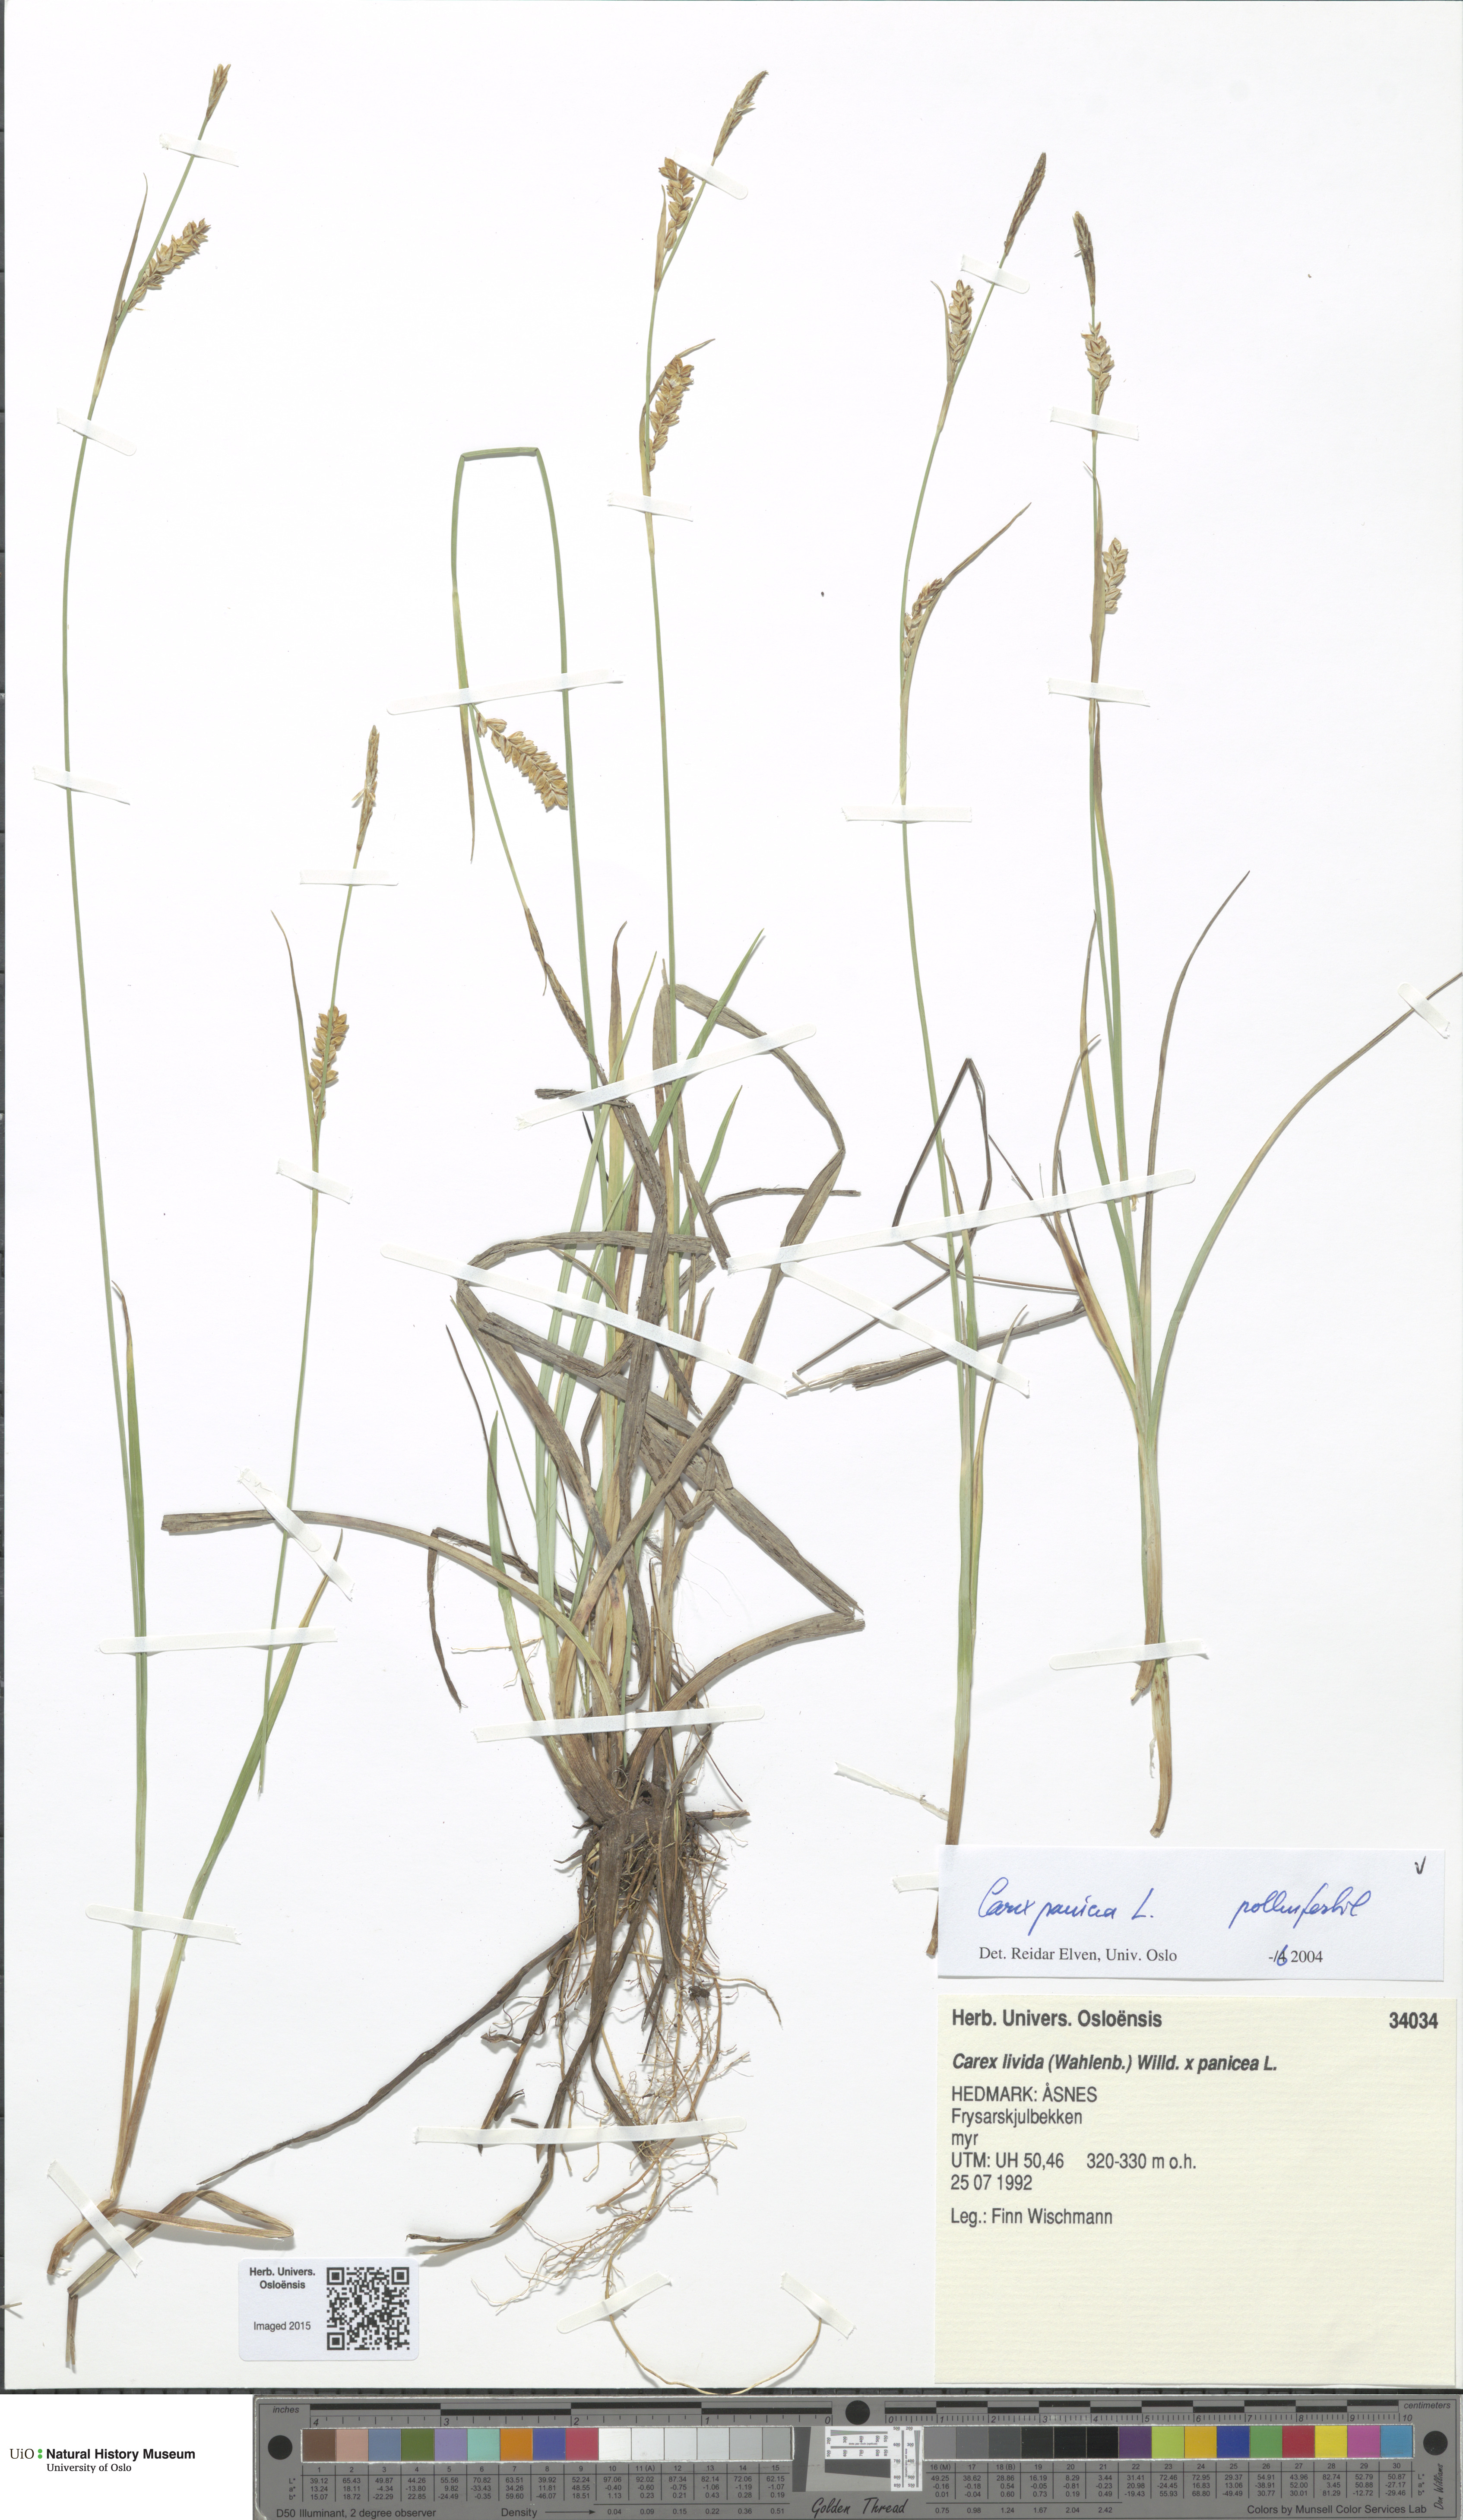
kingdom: Plantae
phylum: Tracheophyta
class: Liliopsida
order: Poales
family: Cyperaceae
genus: Carex
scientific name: Carex panicea
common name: Carnation sedge
